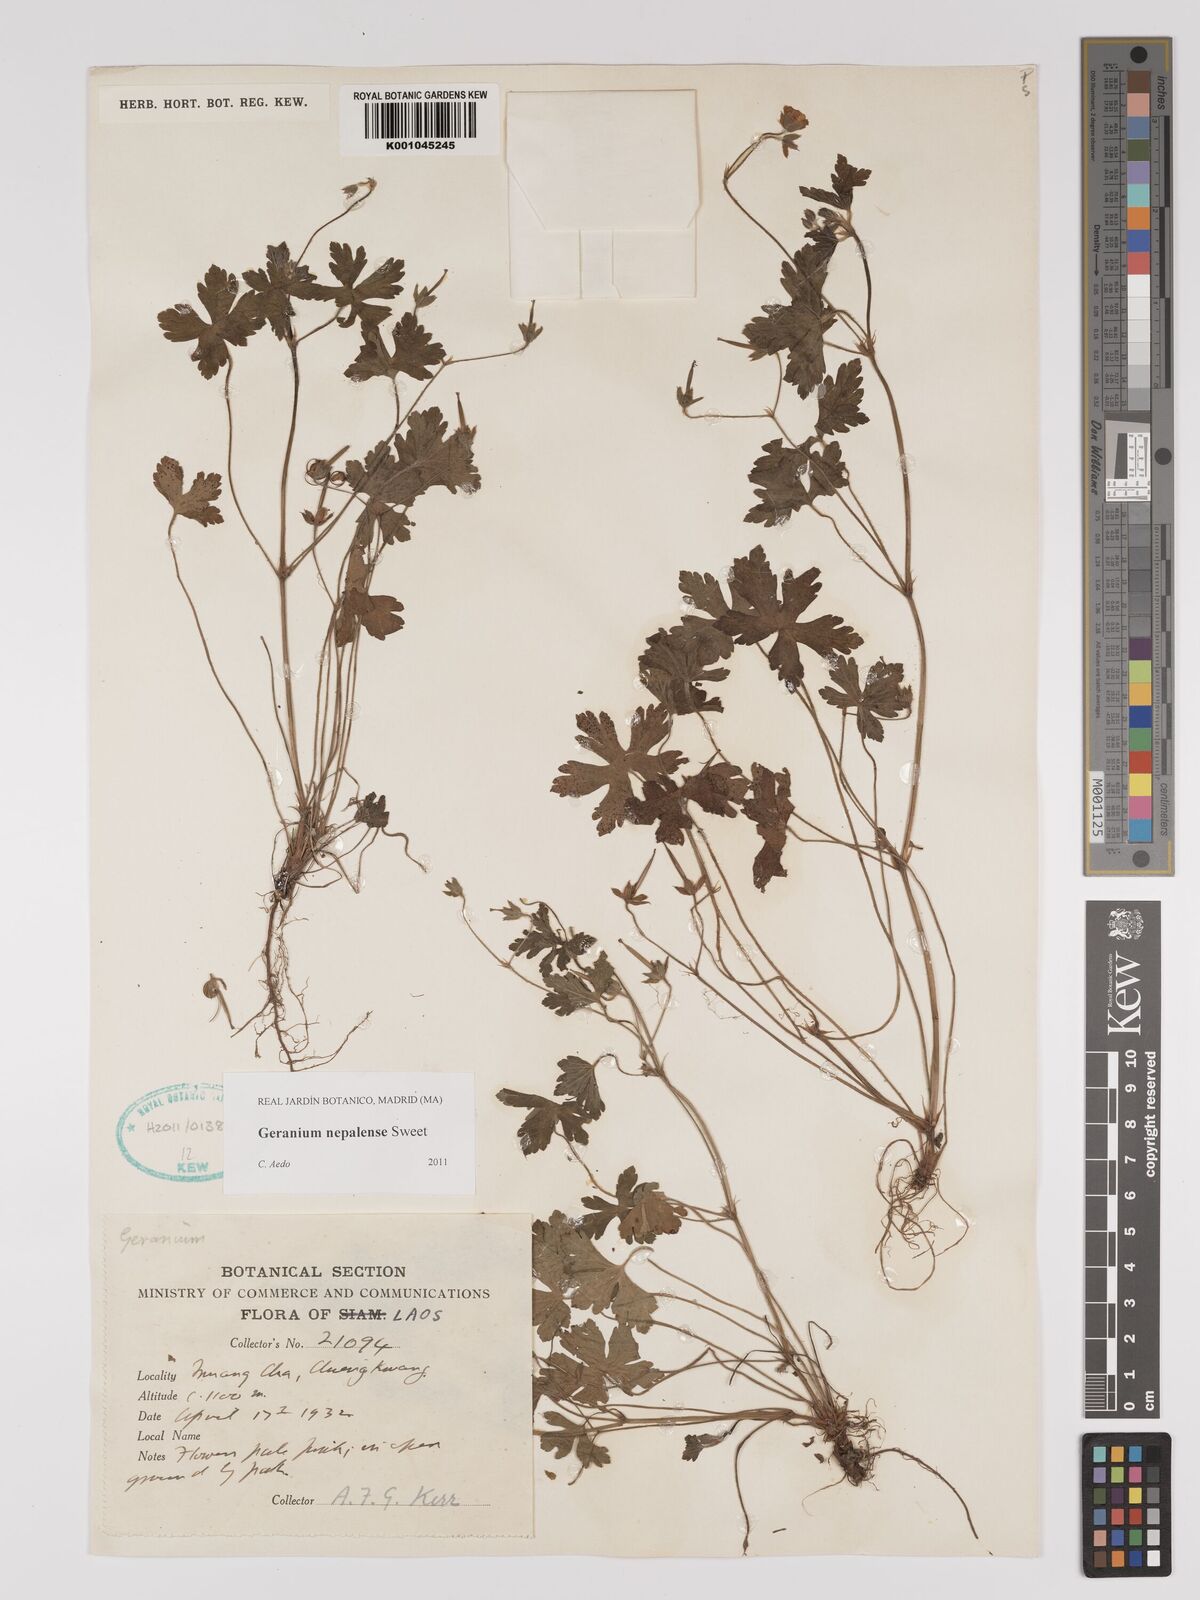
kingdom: Plantae
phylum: Tracheophyta
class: Magnoliopsida
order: Geraniales
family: Geraniaceae
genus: Geranium
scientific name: Geranium nepalense
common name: Nepalese crane's-bill
